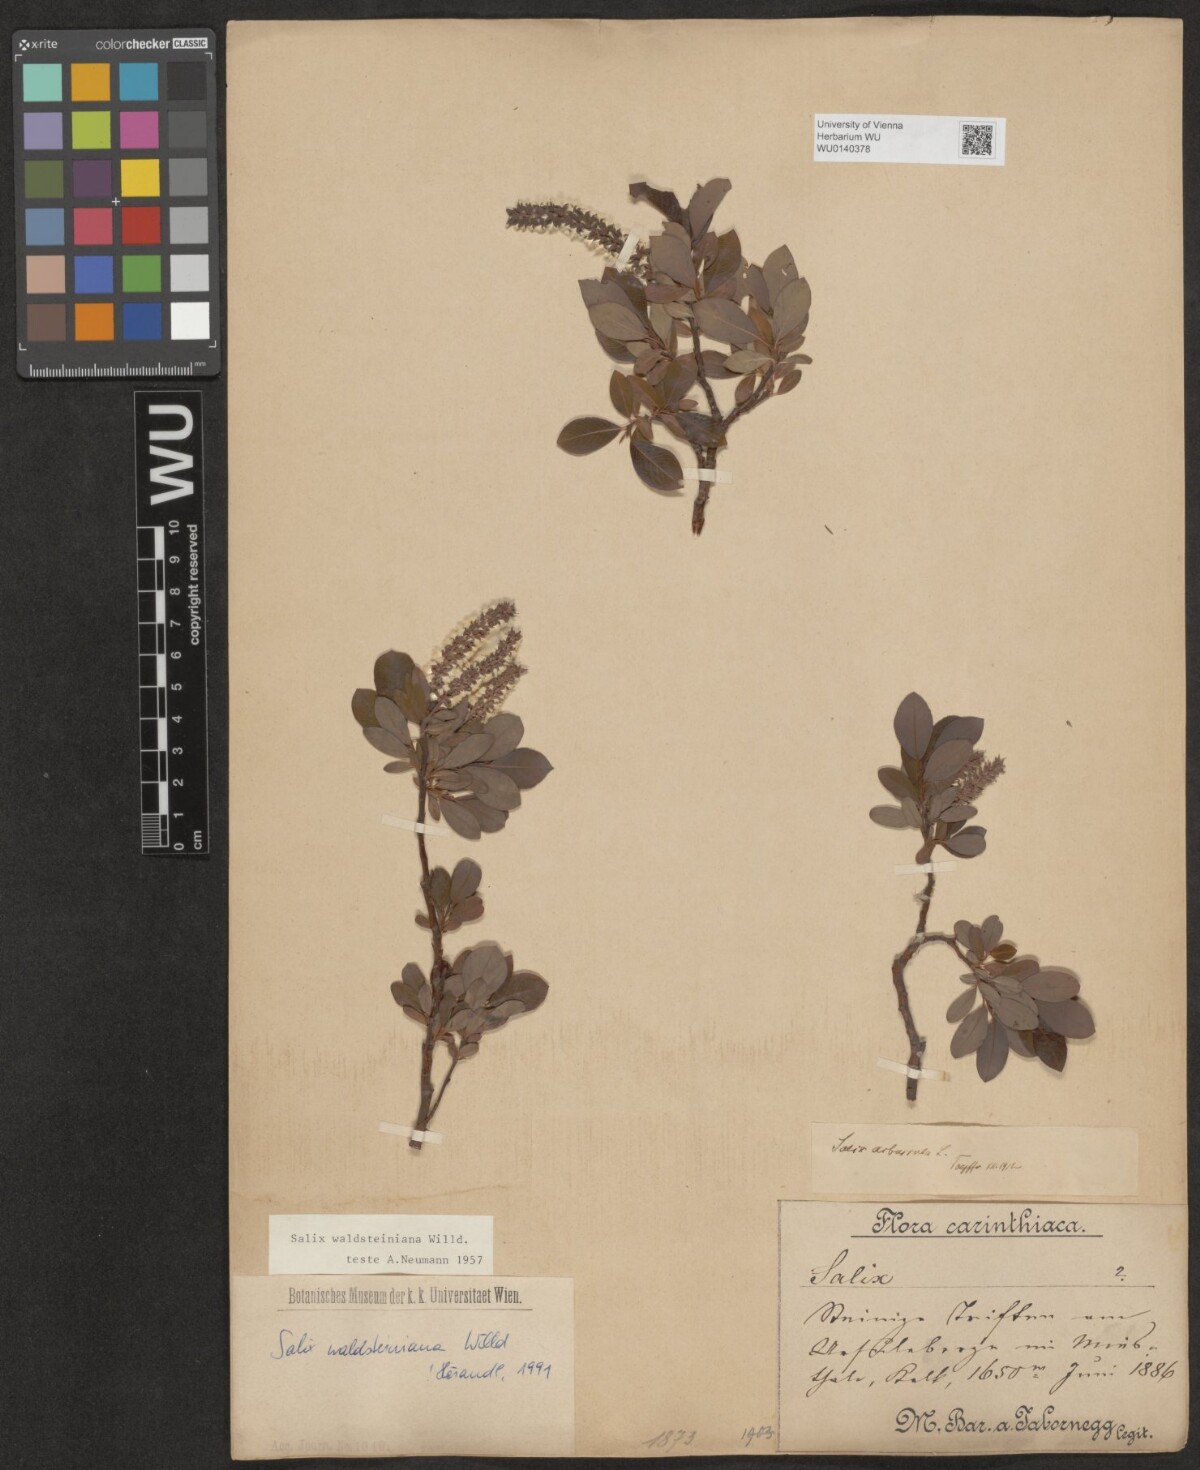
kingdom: Plantae
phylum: Tracheophyta
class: Magnoliopsida
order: Malpighiales
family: Salicaceae
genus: Salix
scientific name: Salix waldsteiniana
